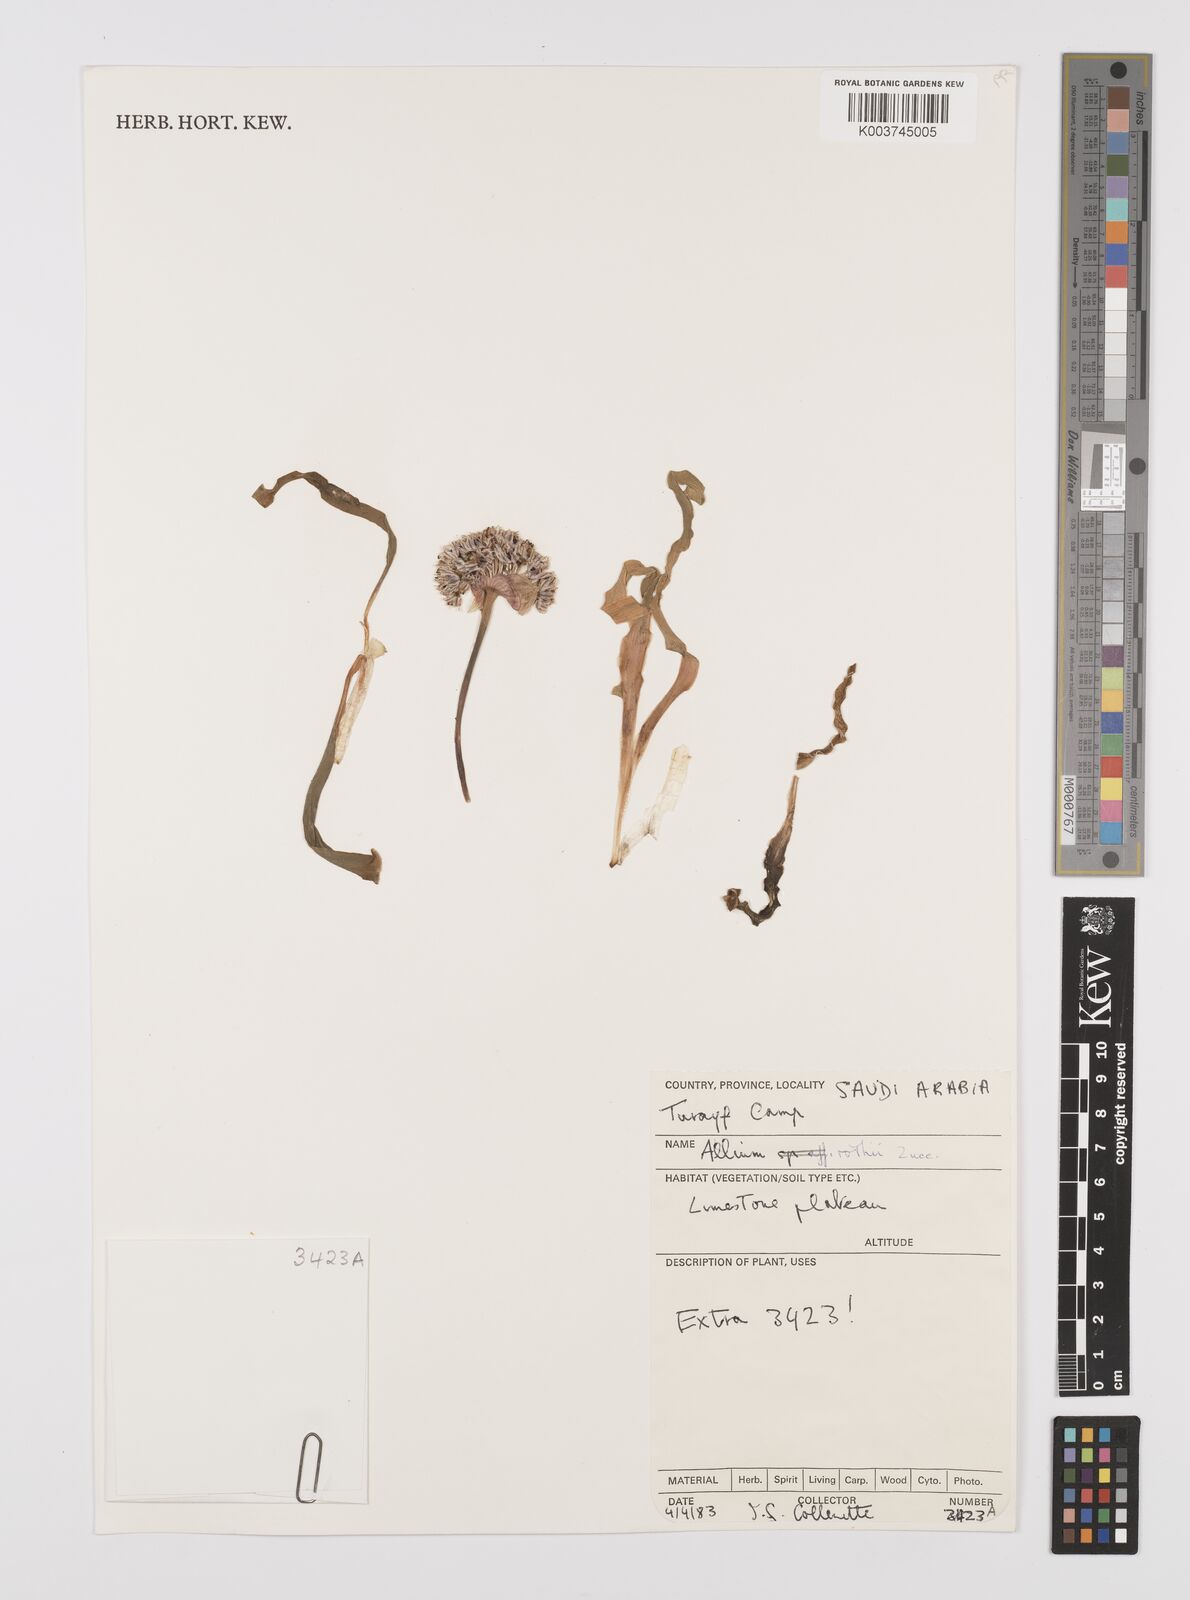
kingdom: Plantae
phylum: Tracheophyta
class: Liliopsida
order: Asparagales
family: Amaryllidaceae
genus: Allium
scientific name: Allium rothii
